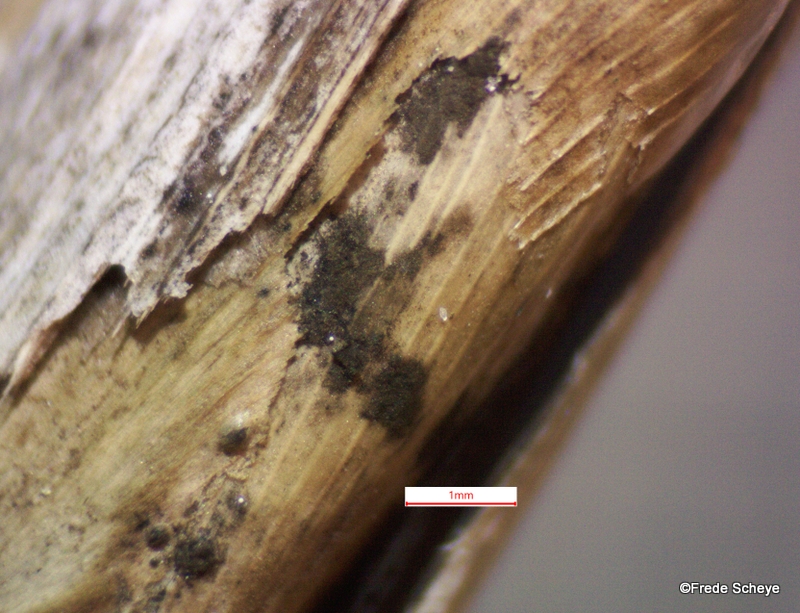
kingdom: Fungi
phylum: Ascomycota
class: Sordariomycetes
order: Xylariales
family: Apiosporaceae
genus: Apiospora
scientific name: Apiospora sphaerosperma
